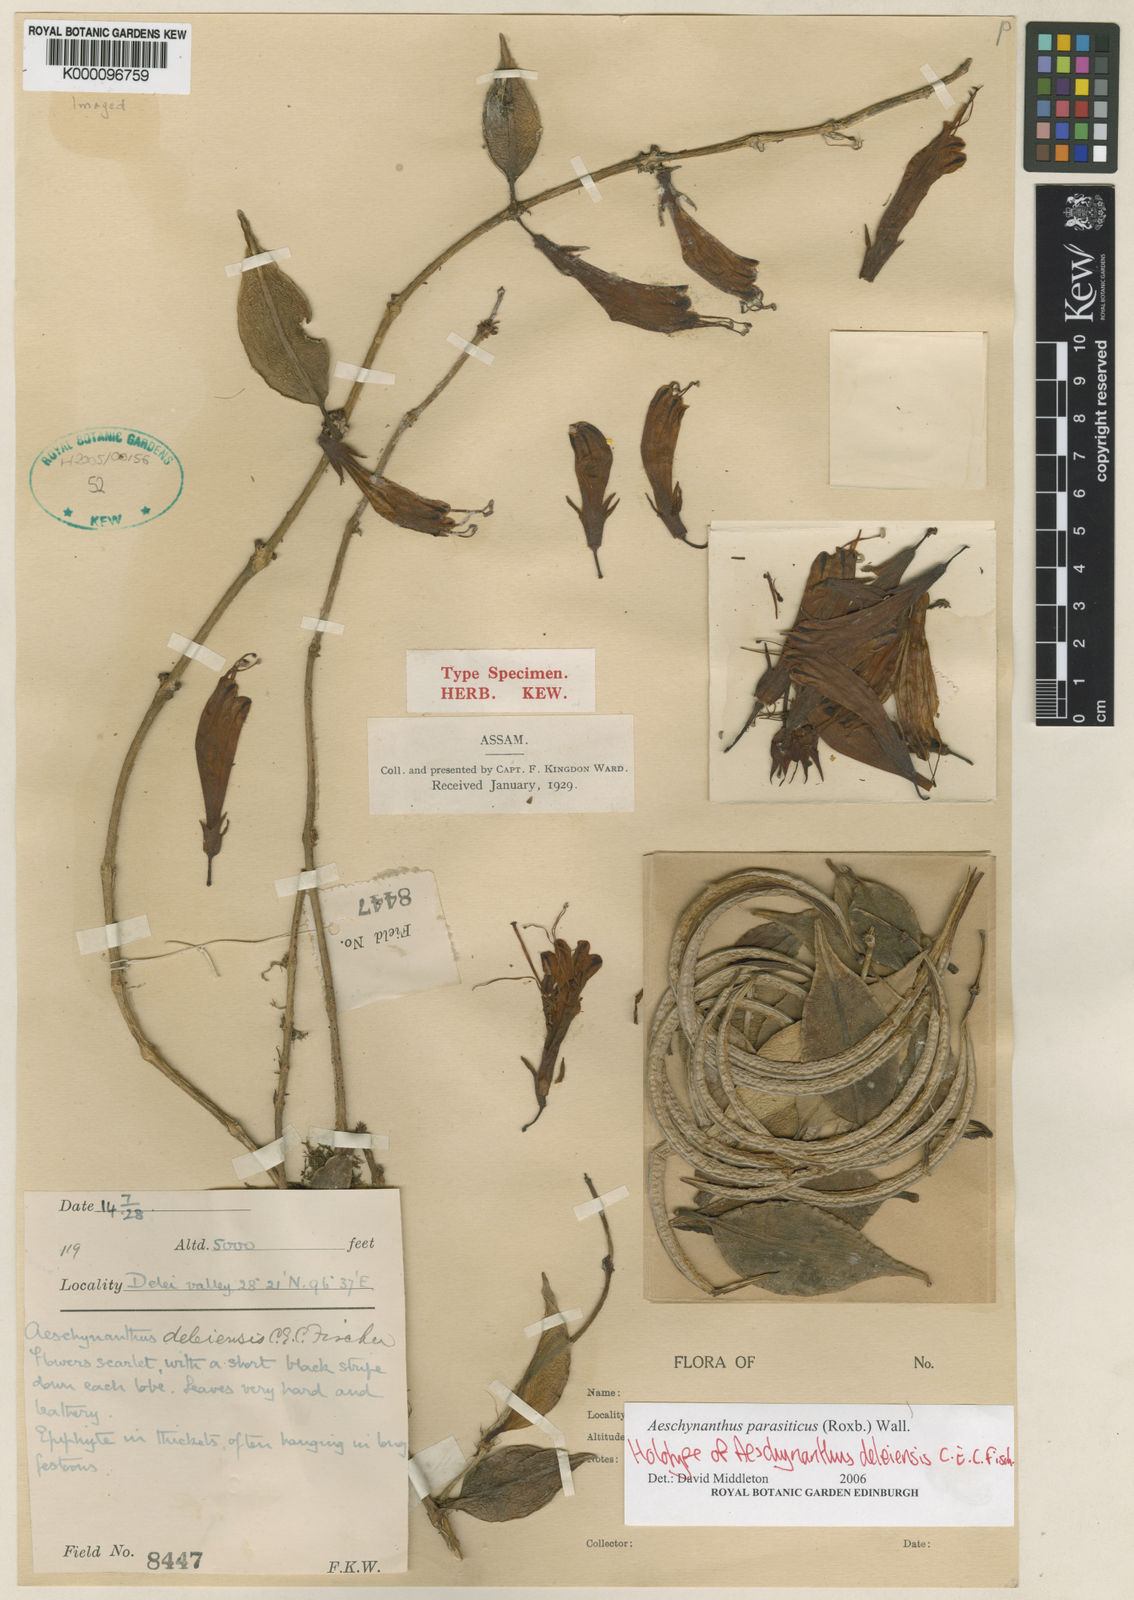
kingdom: Plantae
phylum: Tracheophyta
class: Magnoliopsida
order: Lamiales
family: Gesneriaceae
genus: Aeschynanthus
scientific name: Aeschynanthus parasiticus
